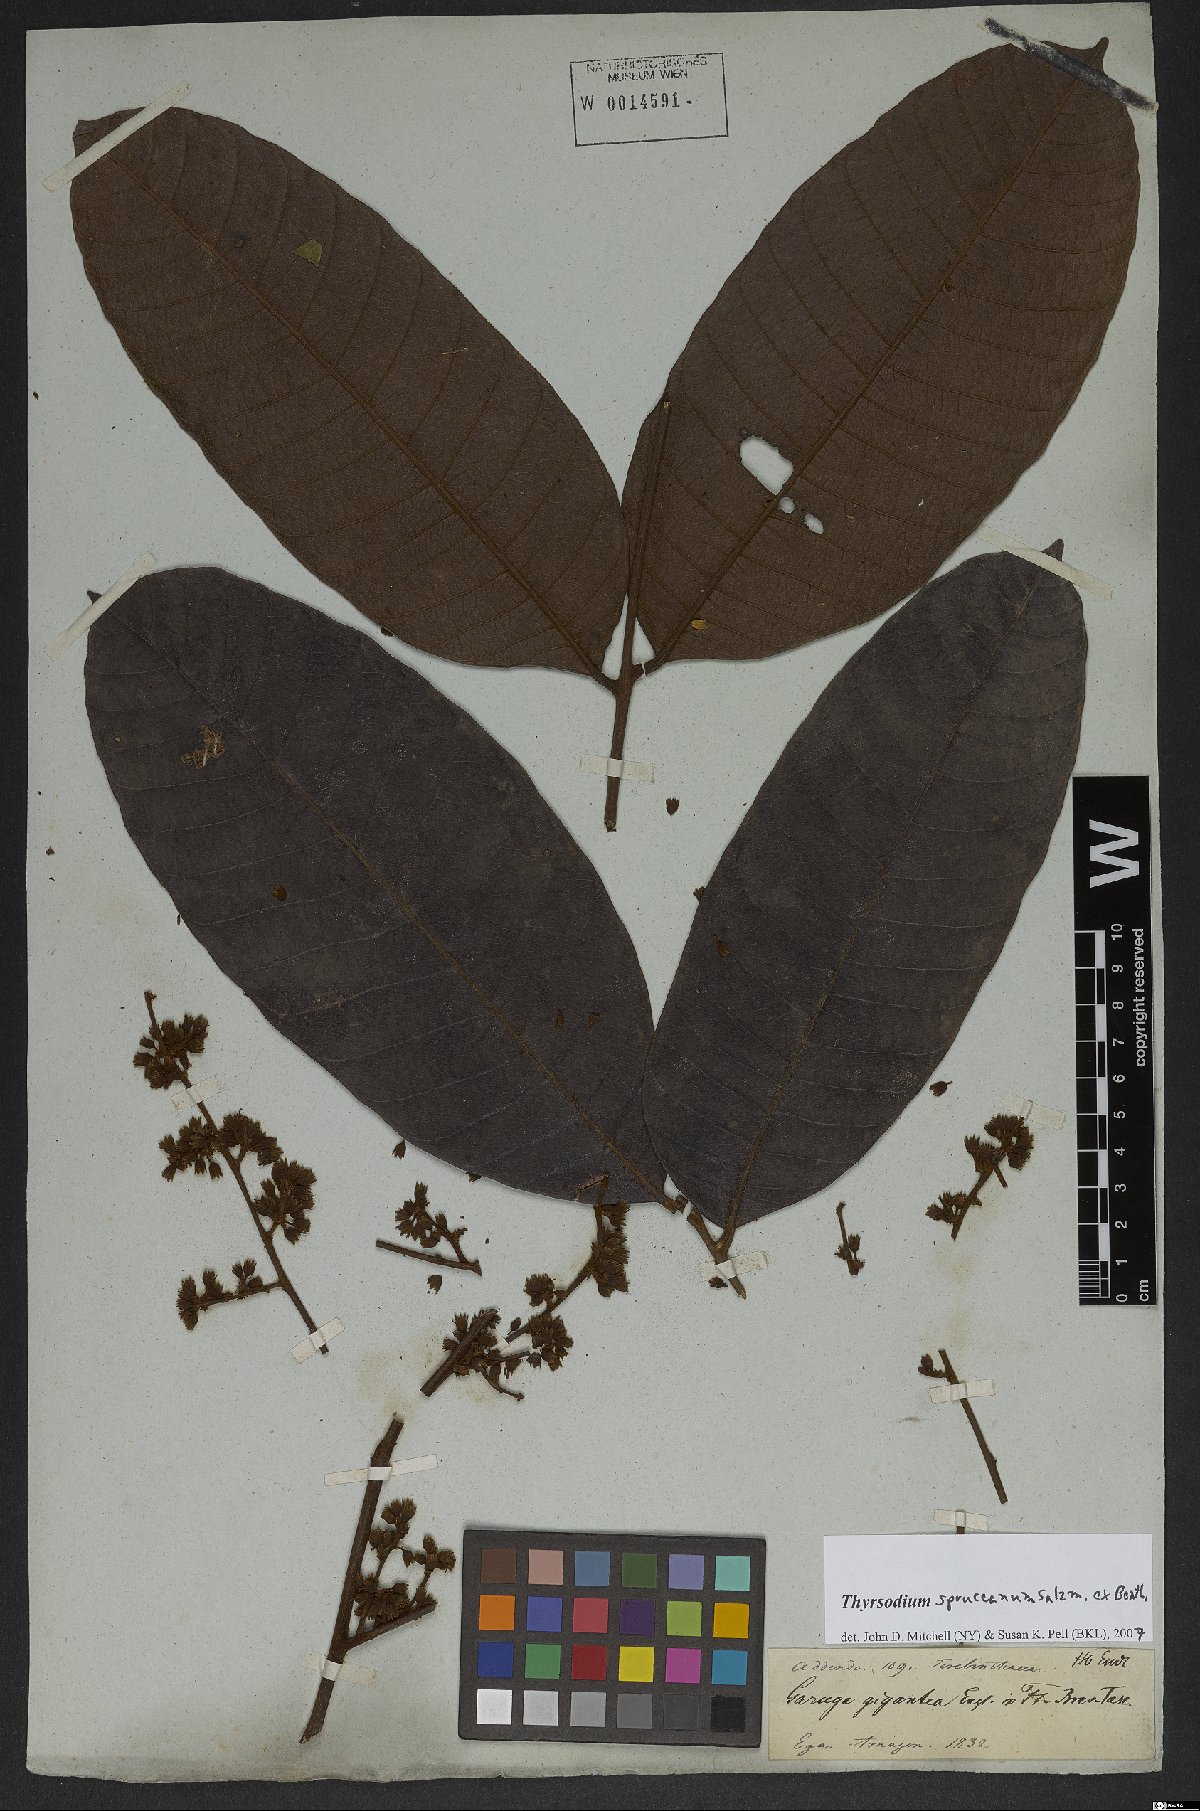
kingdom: Plantae
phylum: Tracheophyta
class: Magnoliopsida
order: Sapindales
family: Anacardiaceae
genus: Thyrsodium
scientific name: Thyrsodium spruceanum
